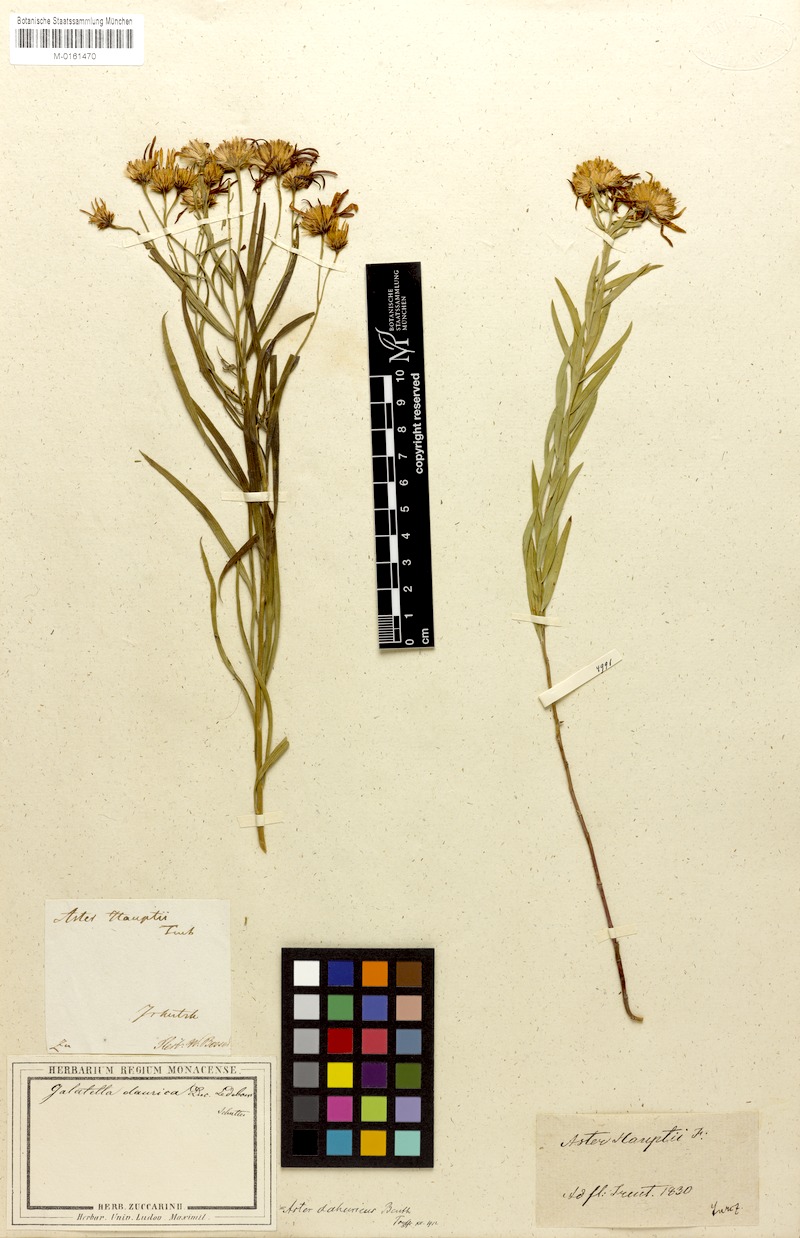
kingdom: Plantae
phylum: Tracheophyta
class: Magnoliopsida
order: Asterales
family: Asteraceae
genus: Galatella
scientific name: Galatella dahurica
